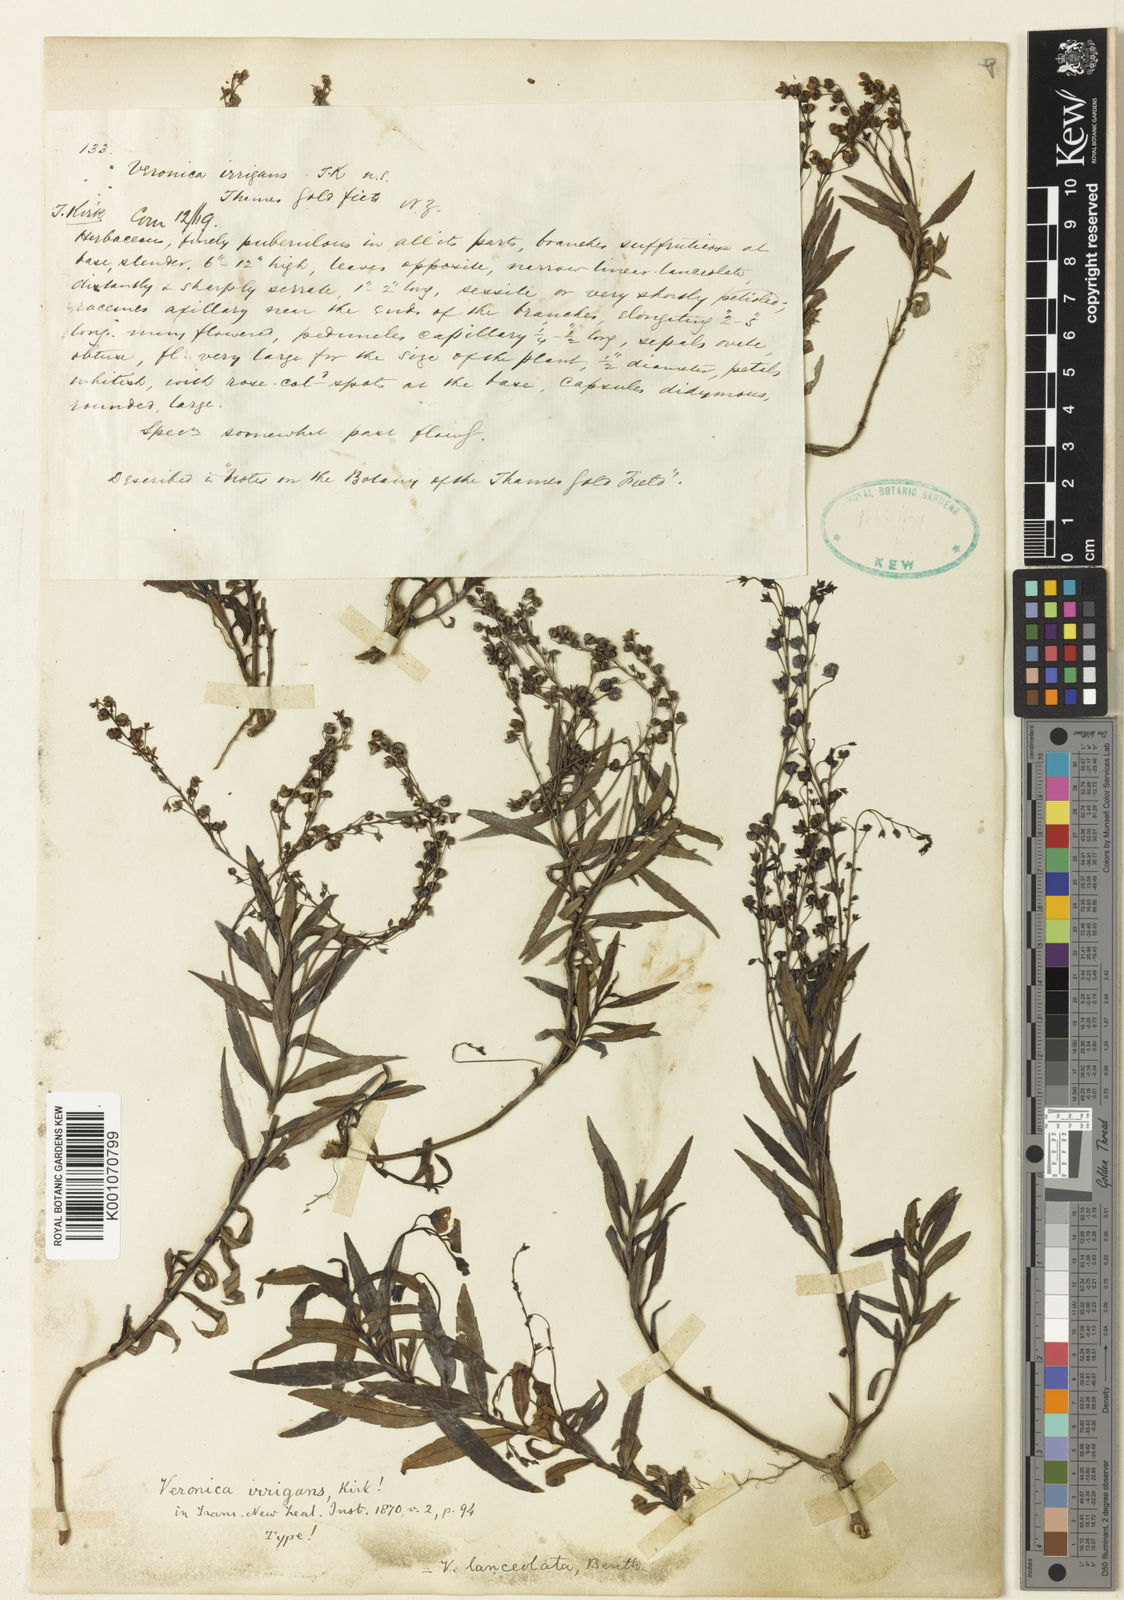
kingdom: Plantae
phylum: Tracheophyta
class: Magnoliopsida
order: Lamiales
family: Plantaginaceae
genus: Veronica
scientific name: Veronica catarractae
